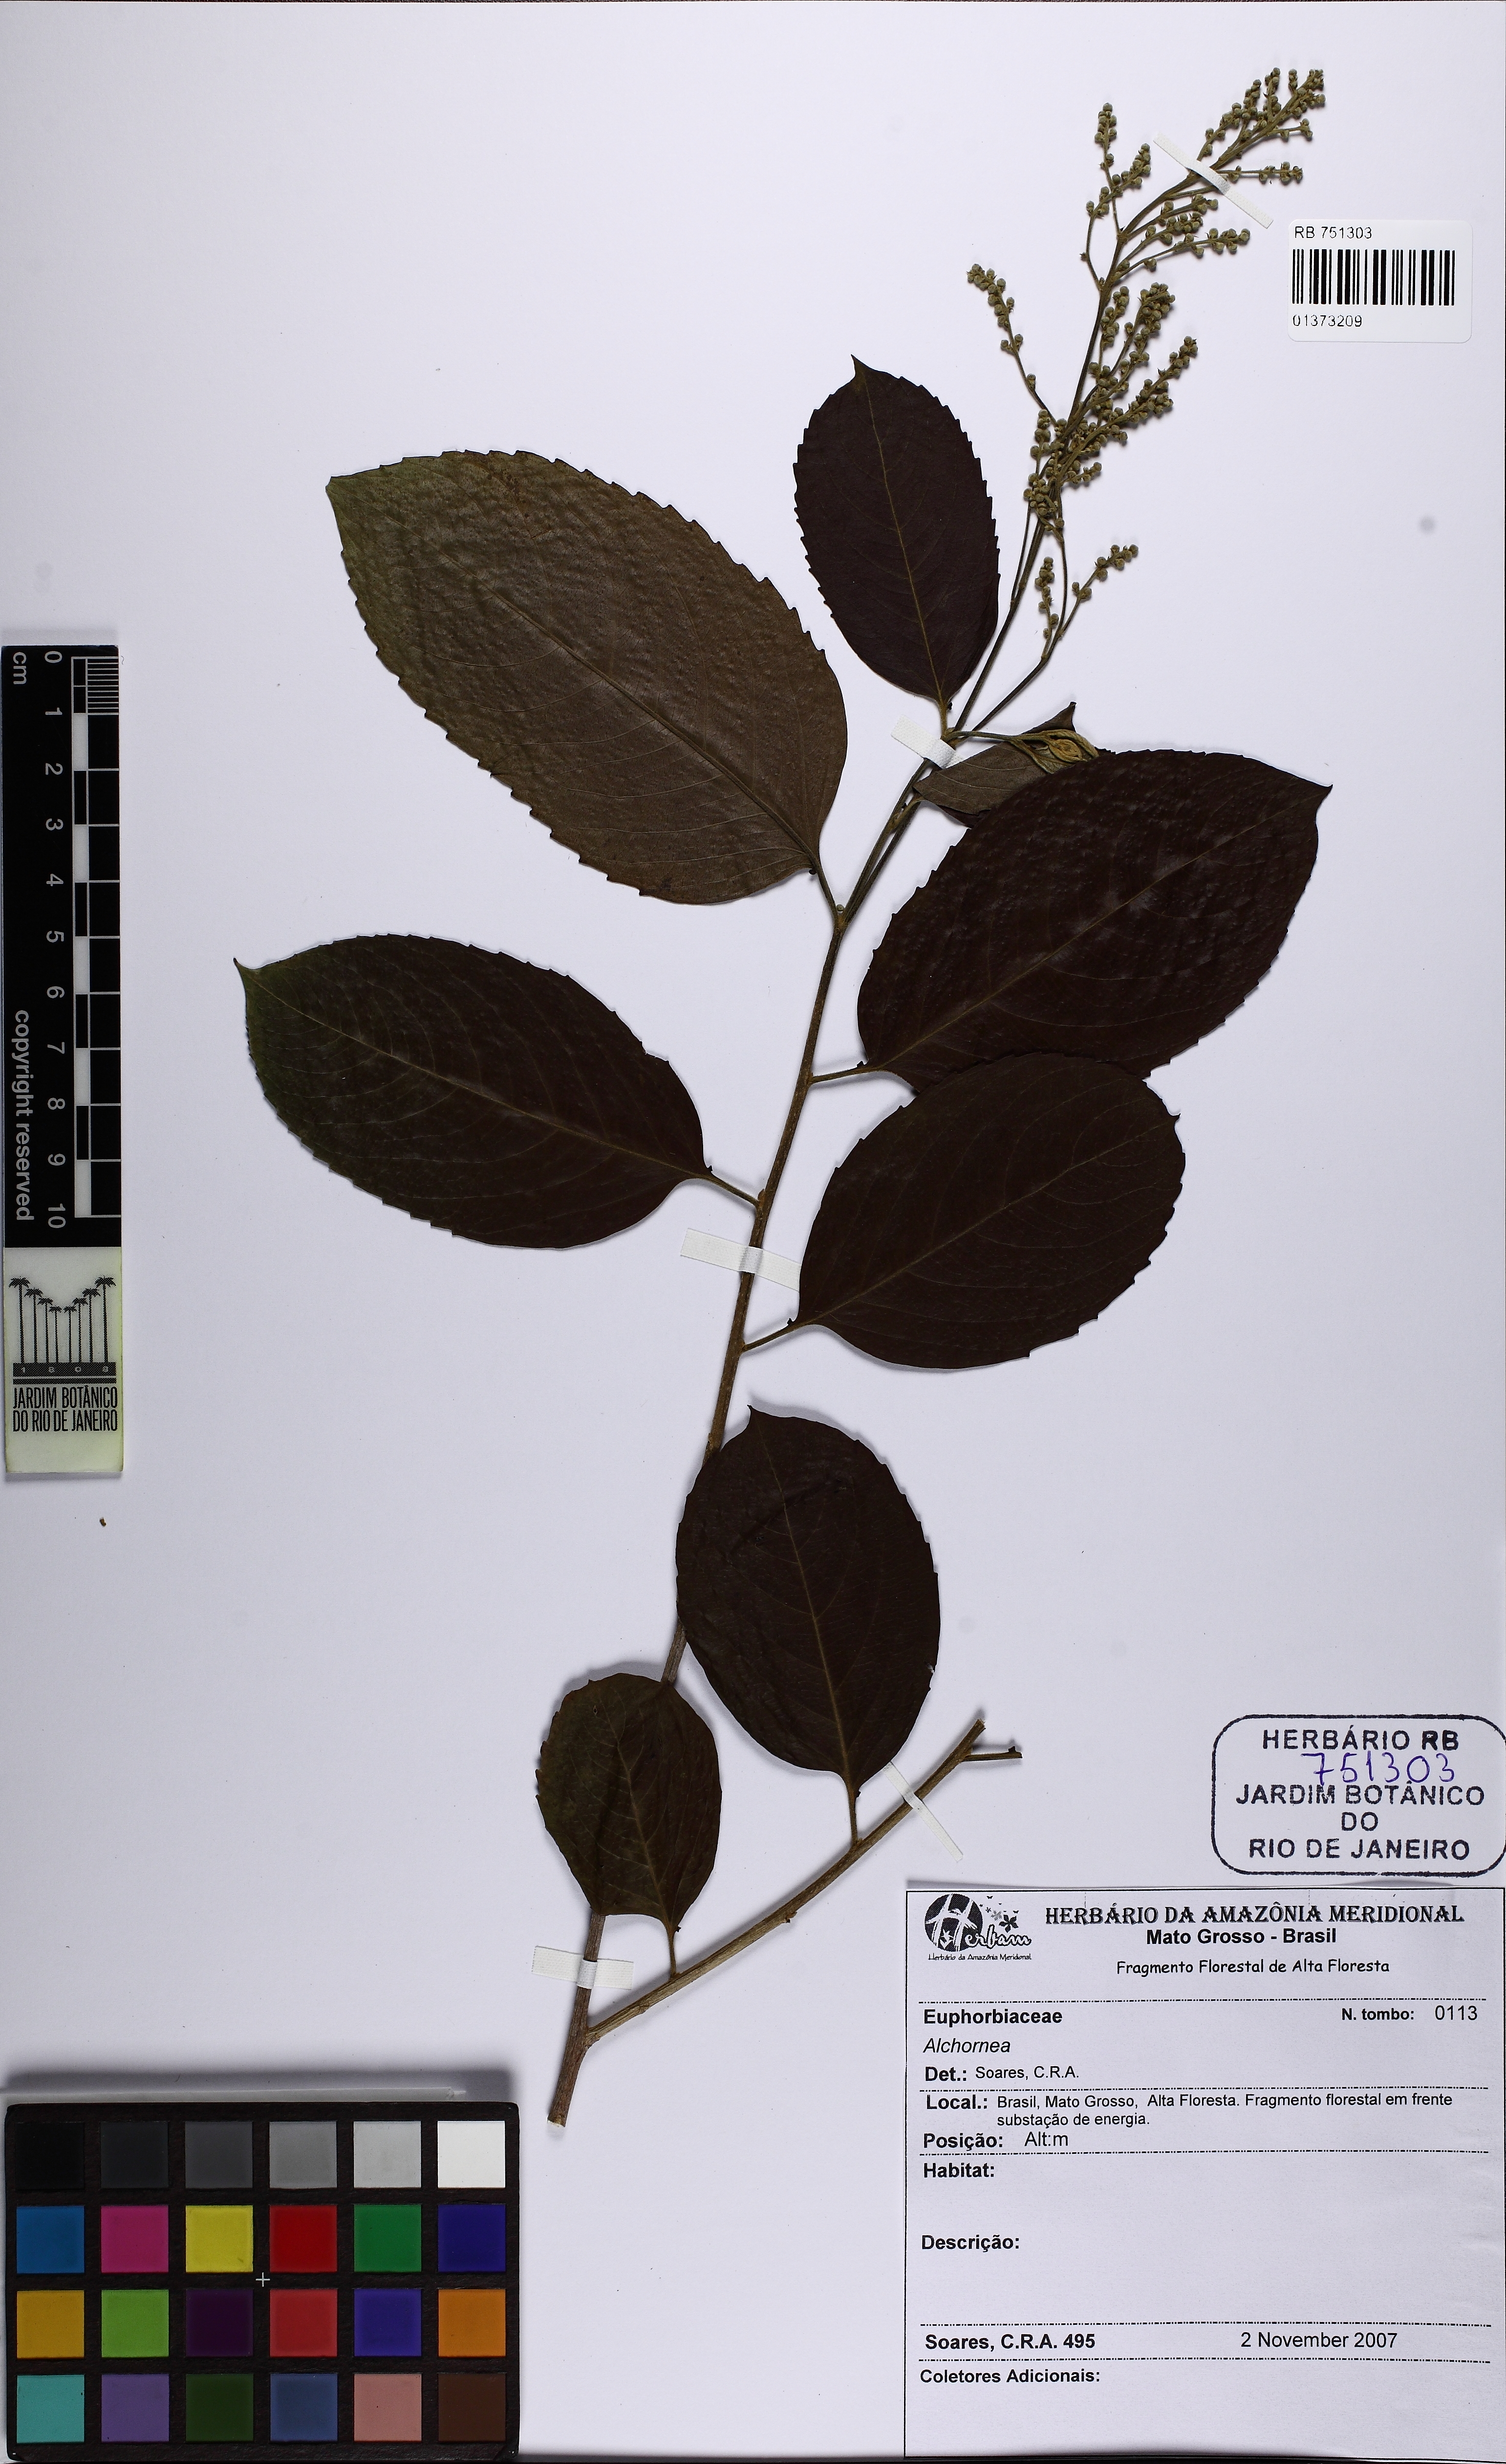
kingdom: Plantae
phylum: Tracheophyta
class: Magnoliopsida
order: Malpighiales
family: Euphorbiaceae
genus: Alchornea
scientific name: Alchornea
